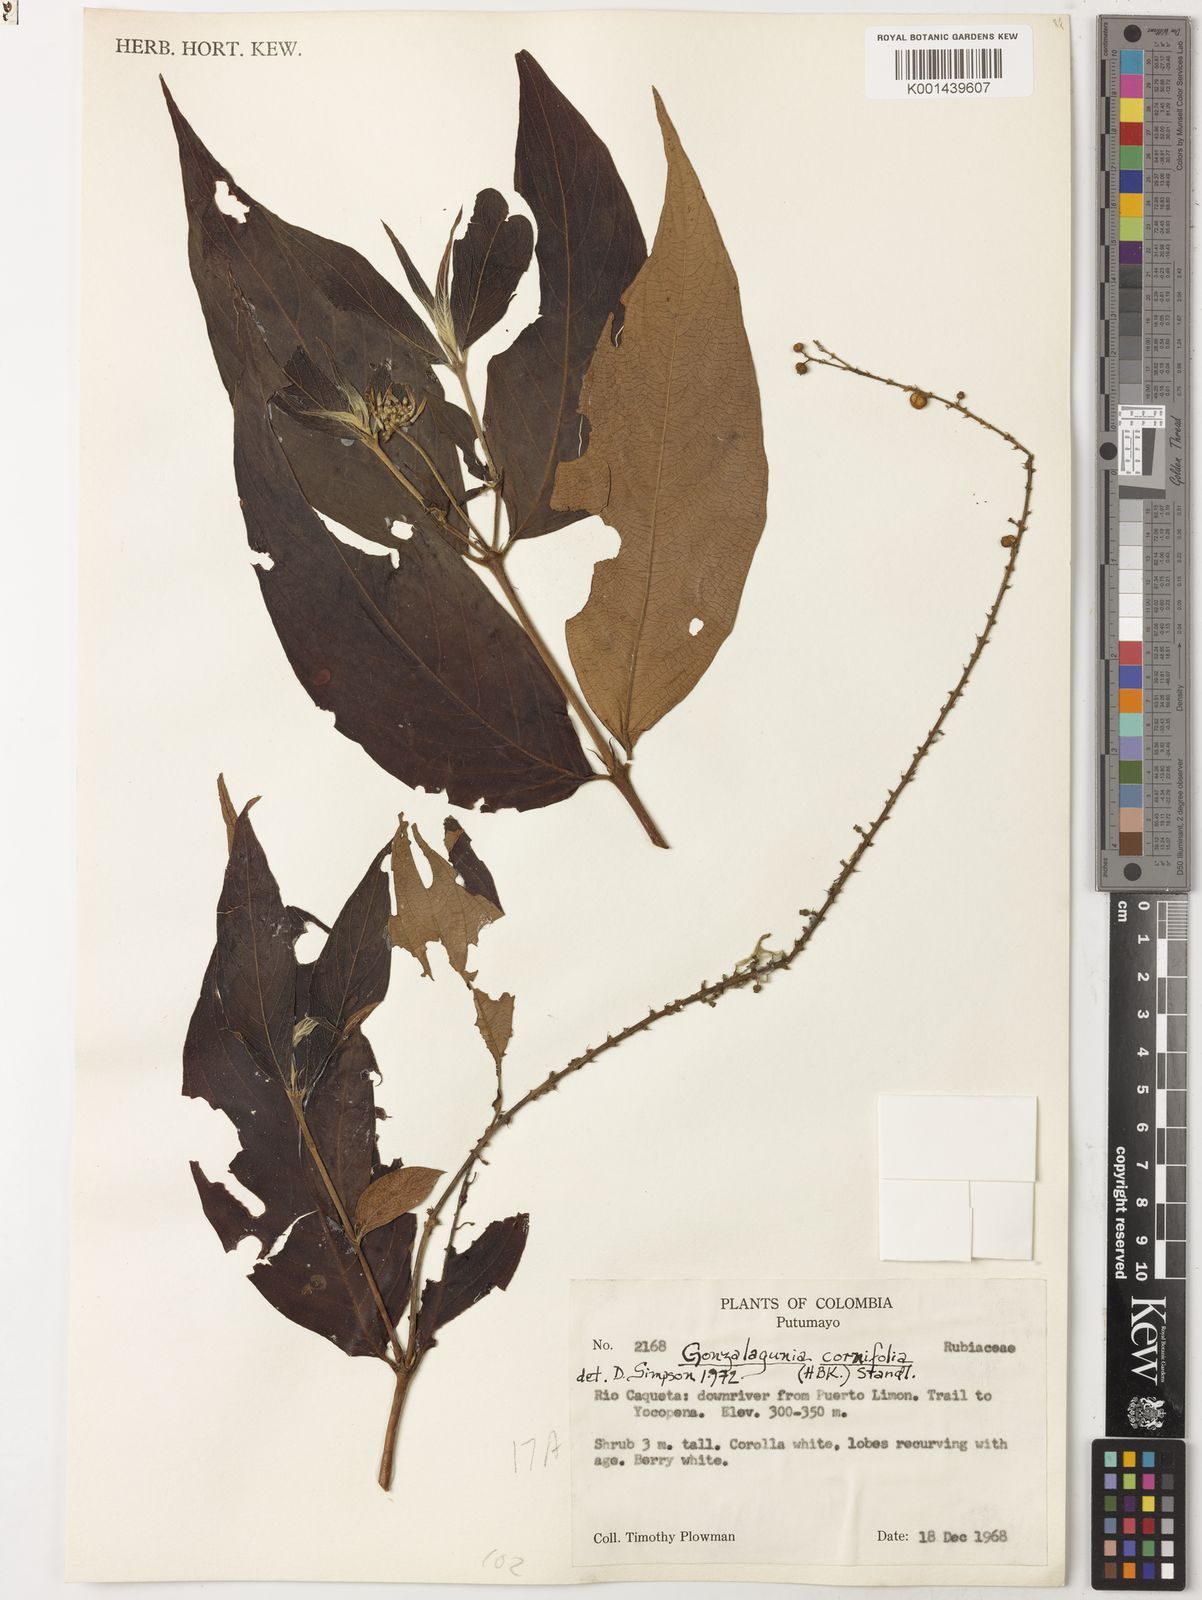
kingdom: Plantae
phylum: Tracheophyta
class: Magnoliopsida
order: Gentianales
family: Rubiaceae
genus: Gonzalagunia
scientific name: Gonzalagunia cornifolia
